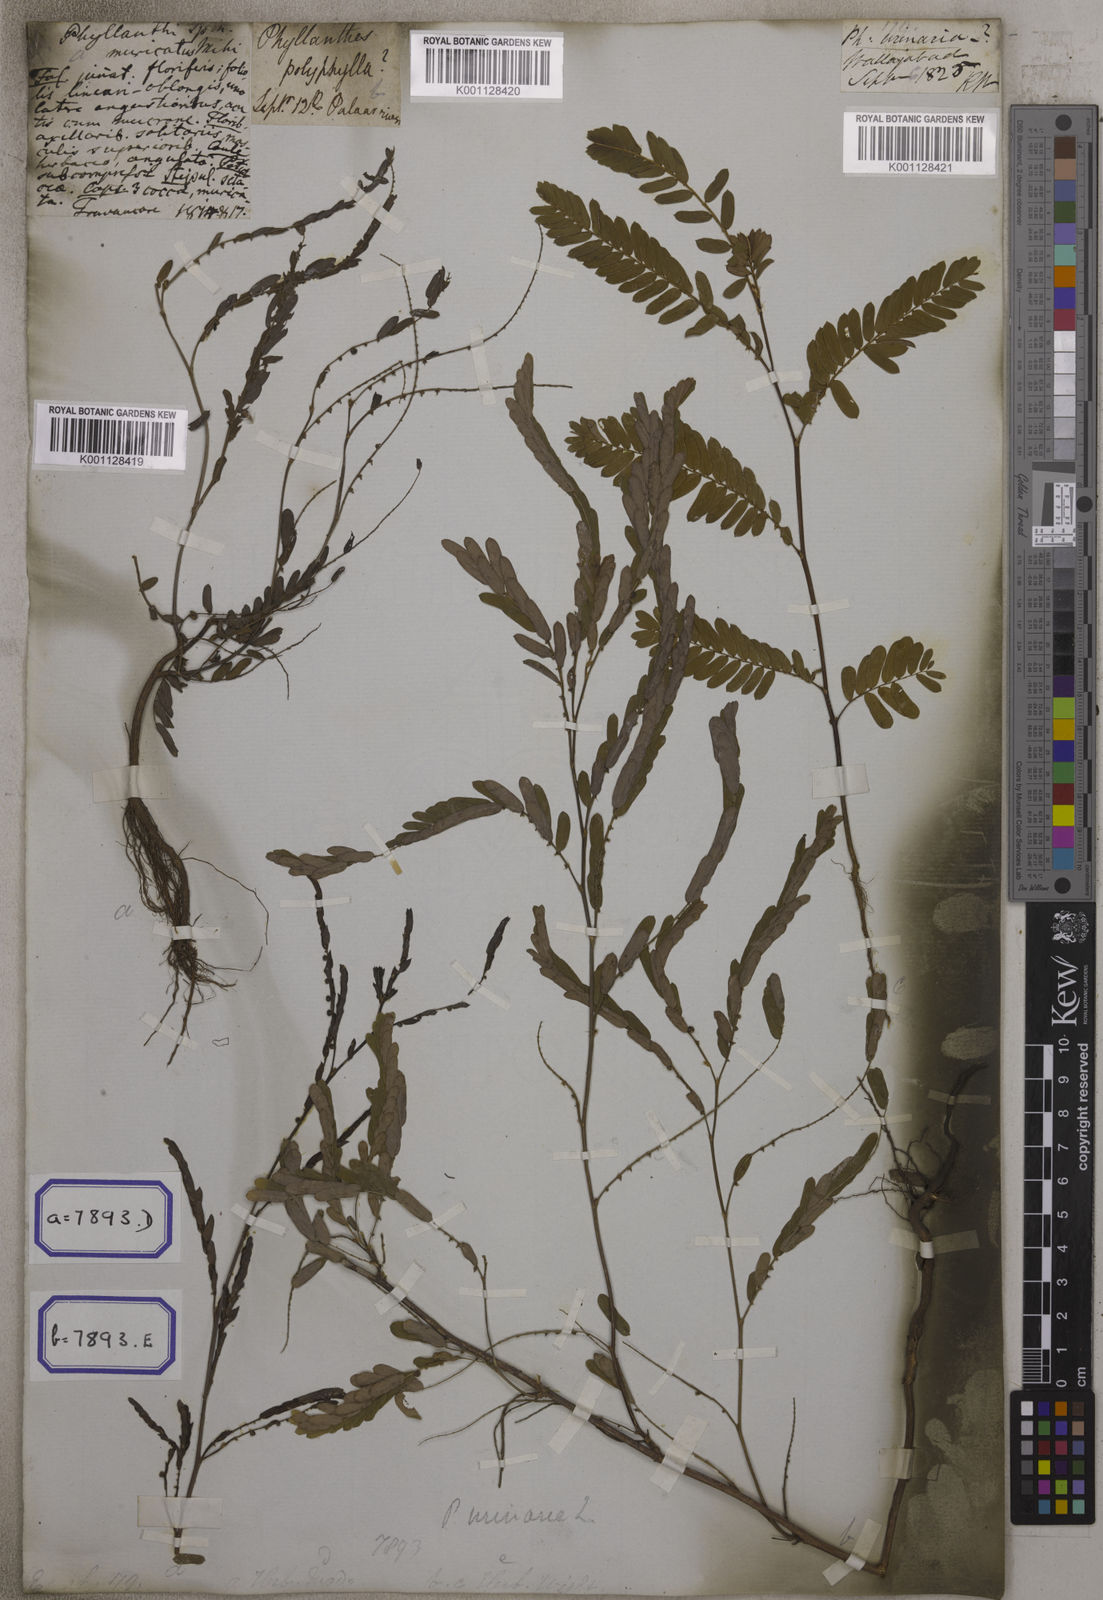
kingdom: Plantae
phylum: Tracheophyta
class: Magnoliopsida
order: Malpighiales
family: Euphorbiaceae
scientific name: Euphorbiaceae
